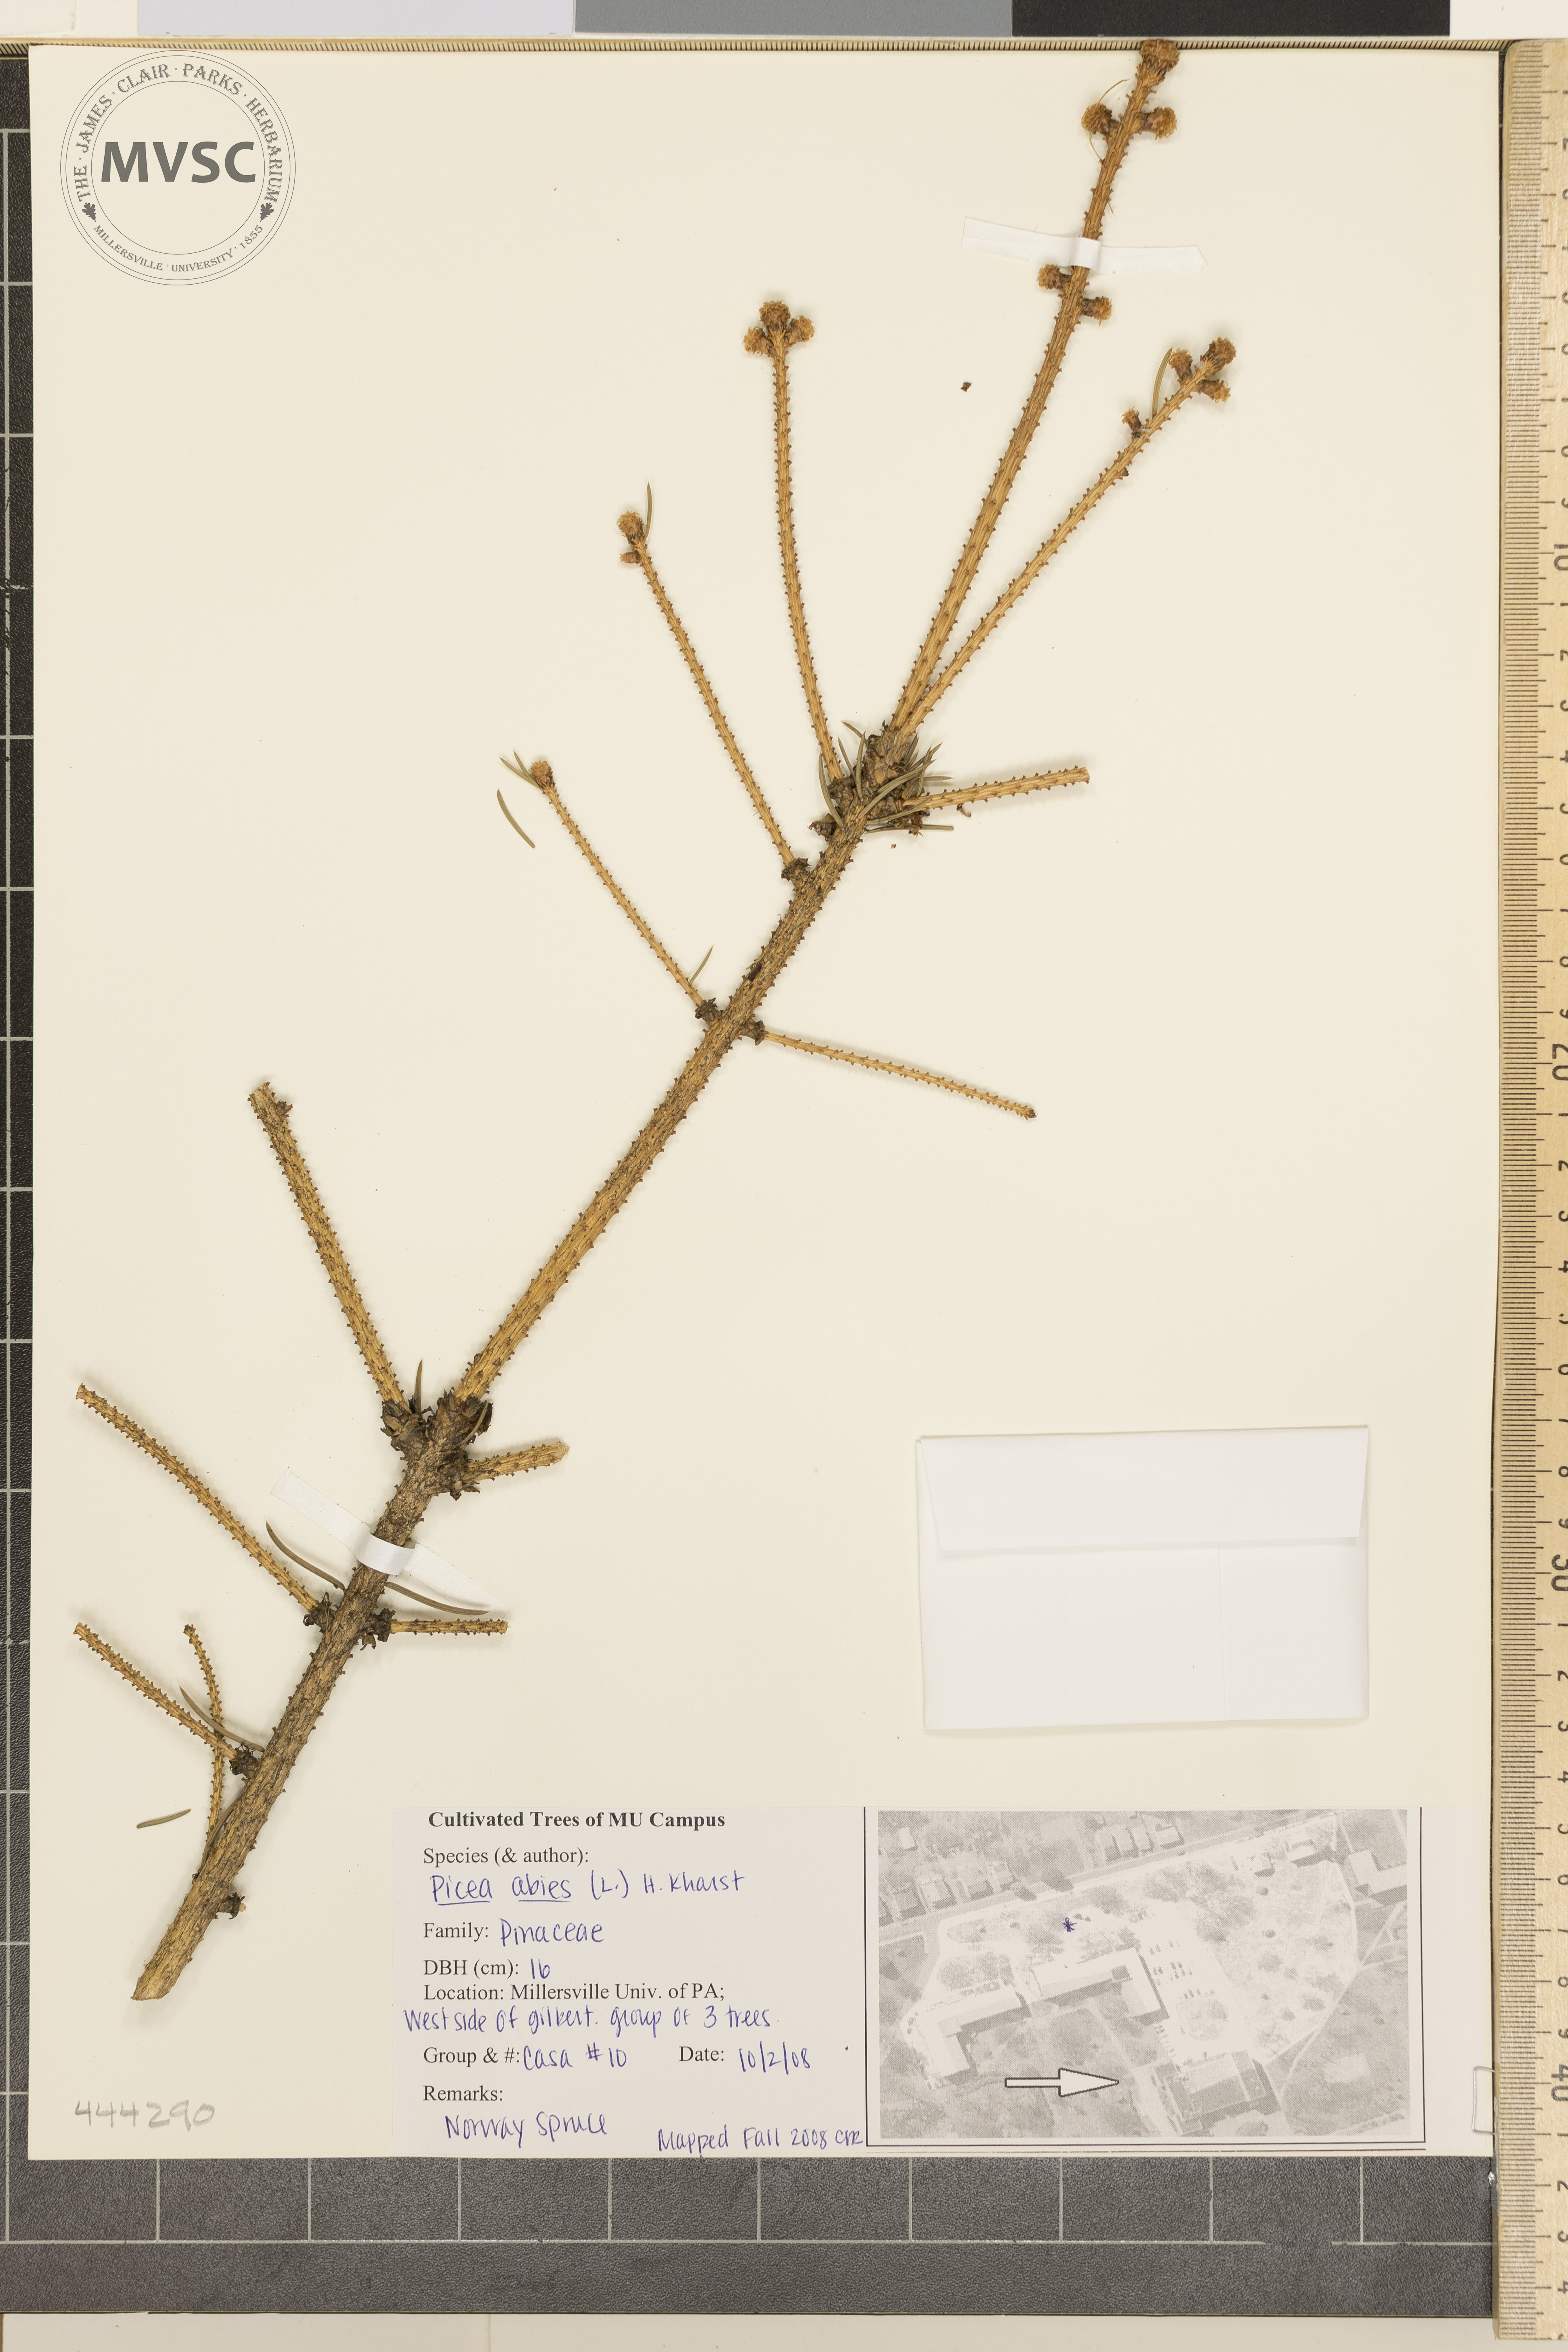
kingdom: Plantae
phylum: Tracheophyta
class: Pinopsida
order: Pinales
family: Pinaceae
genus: Picea
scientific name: Picea abies
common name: Norway Spruce
